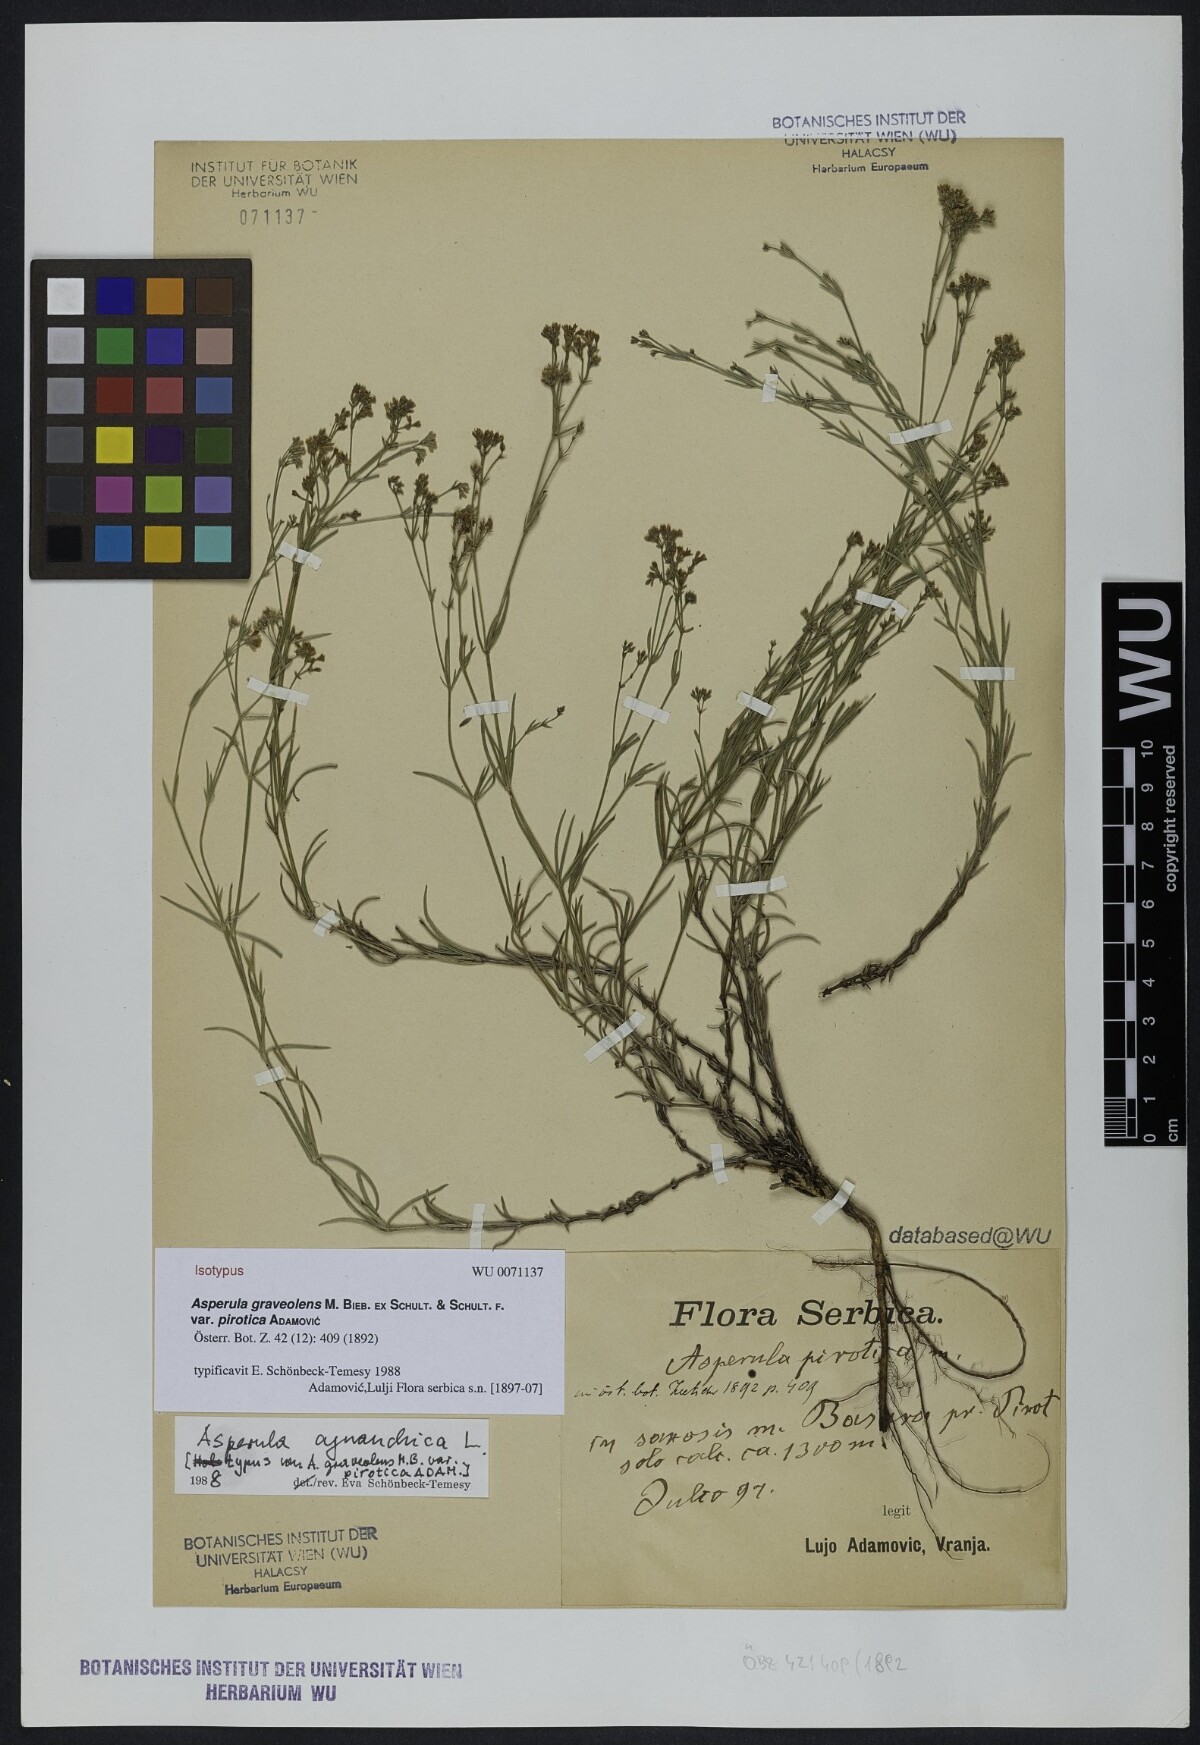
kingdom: Plantae
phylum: Tracheophyta
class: Magnoliopsida
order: Gentianales
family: Rubiaceae
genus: Cynanchica
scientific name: Cynanchica pyrenaica
